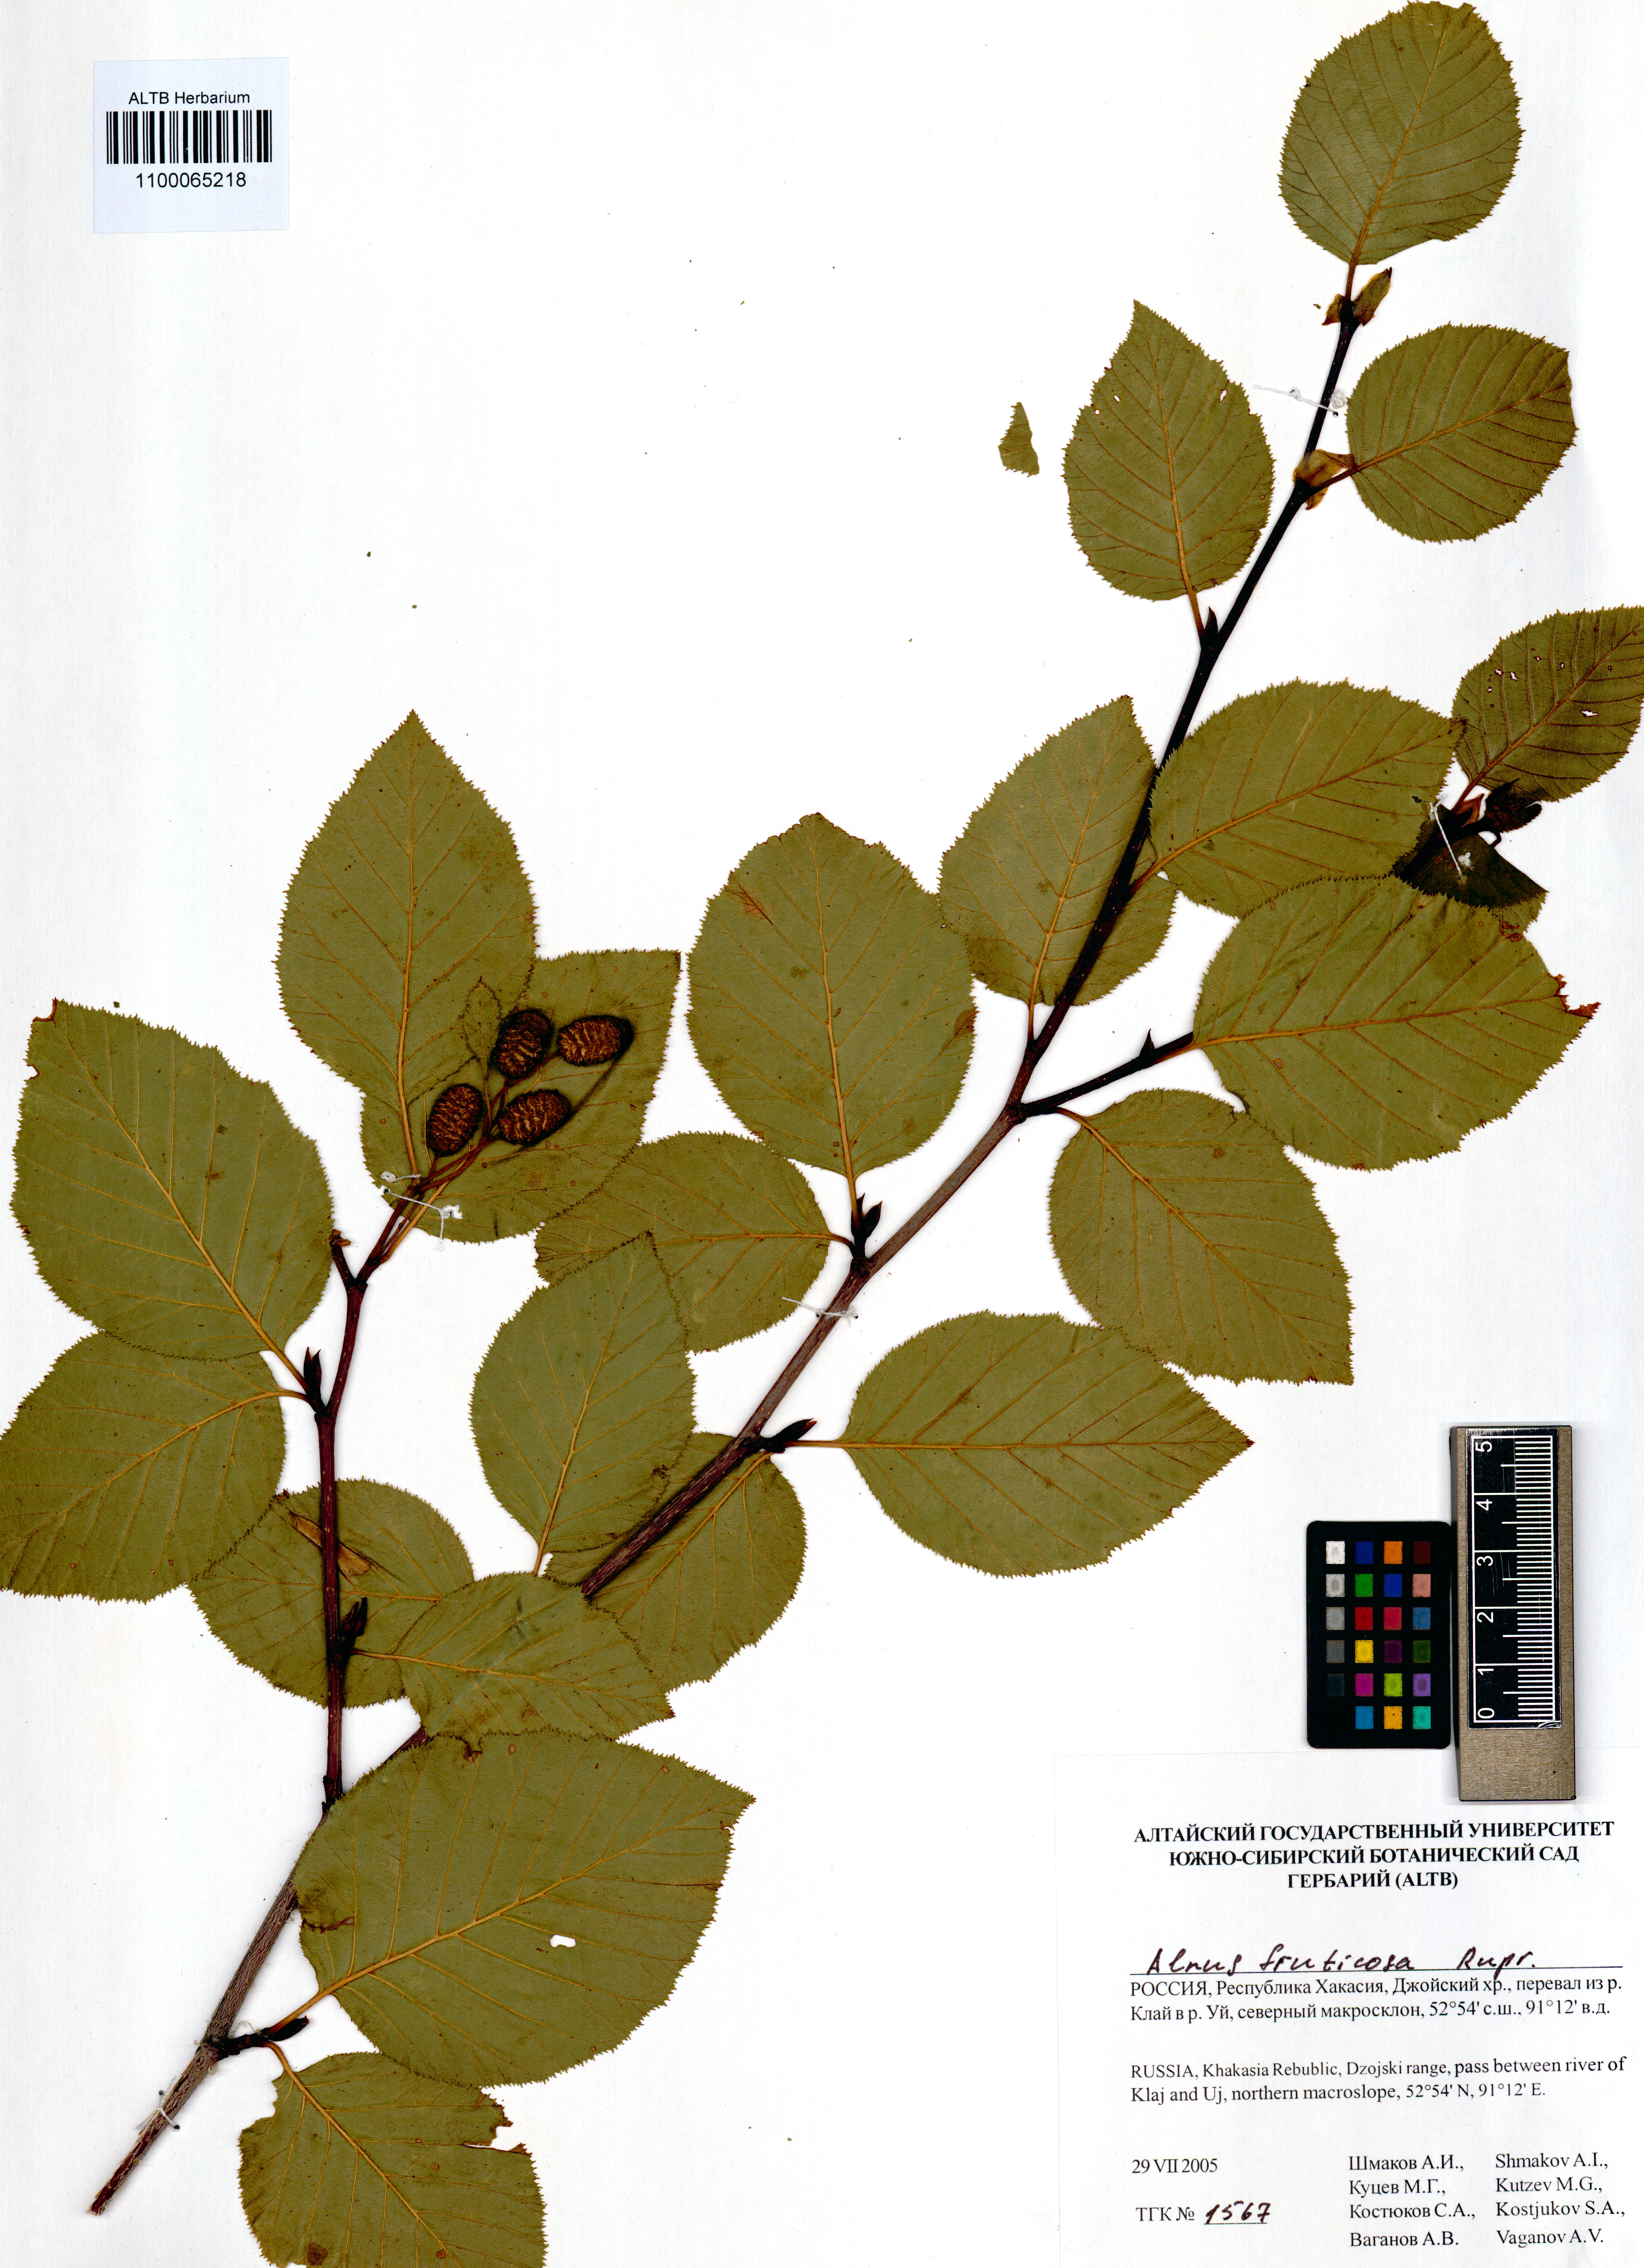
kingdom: Plantae
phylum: Tracheophyta
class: Magnoliopsida
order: Fagales
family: Betulaceae
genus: Alnus
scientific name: Alnus alnobetula
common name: Green alder
